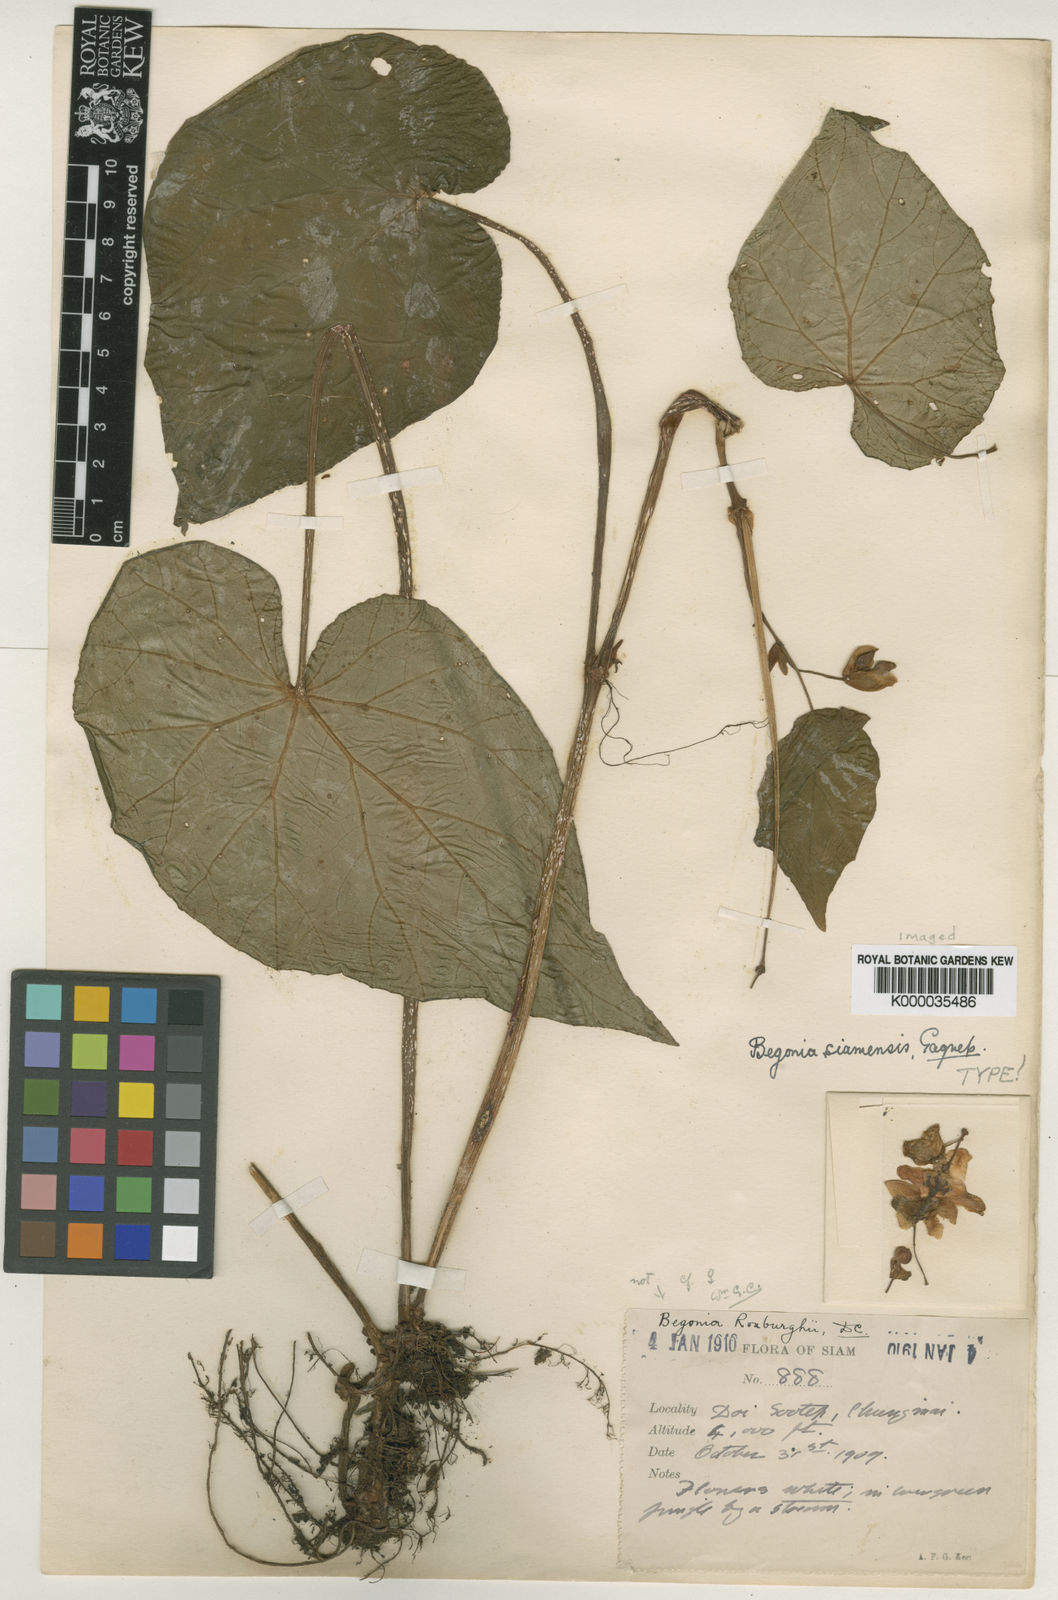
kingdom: Plantae
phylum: Tracheophyta
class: Magnoliopsida
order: Cucurbitales
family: Begoniaceae
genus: Begonia
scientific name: Begonia siamensis
